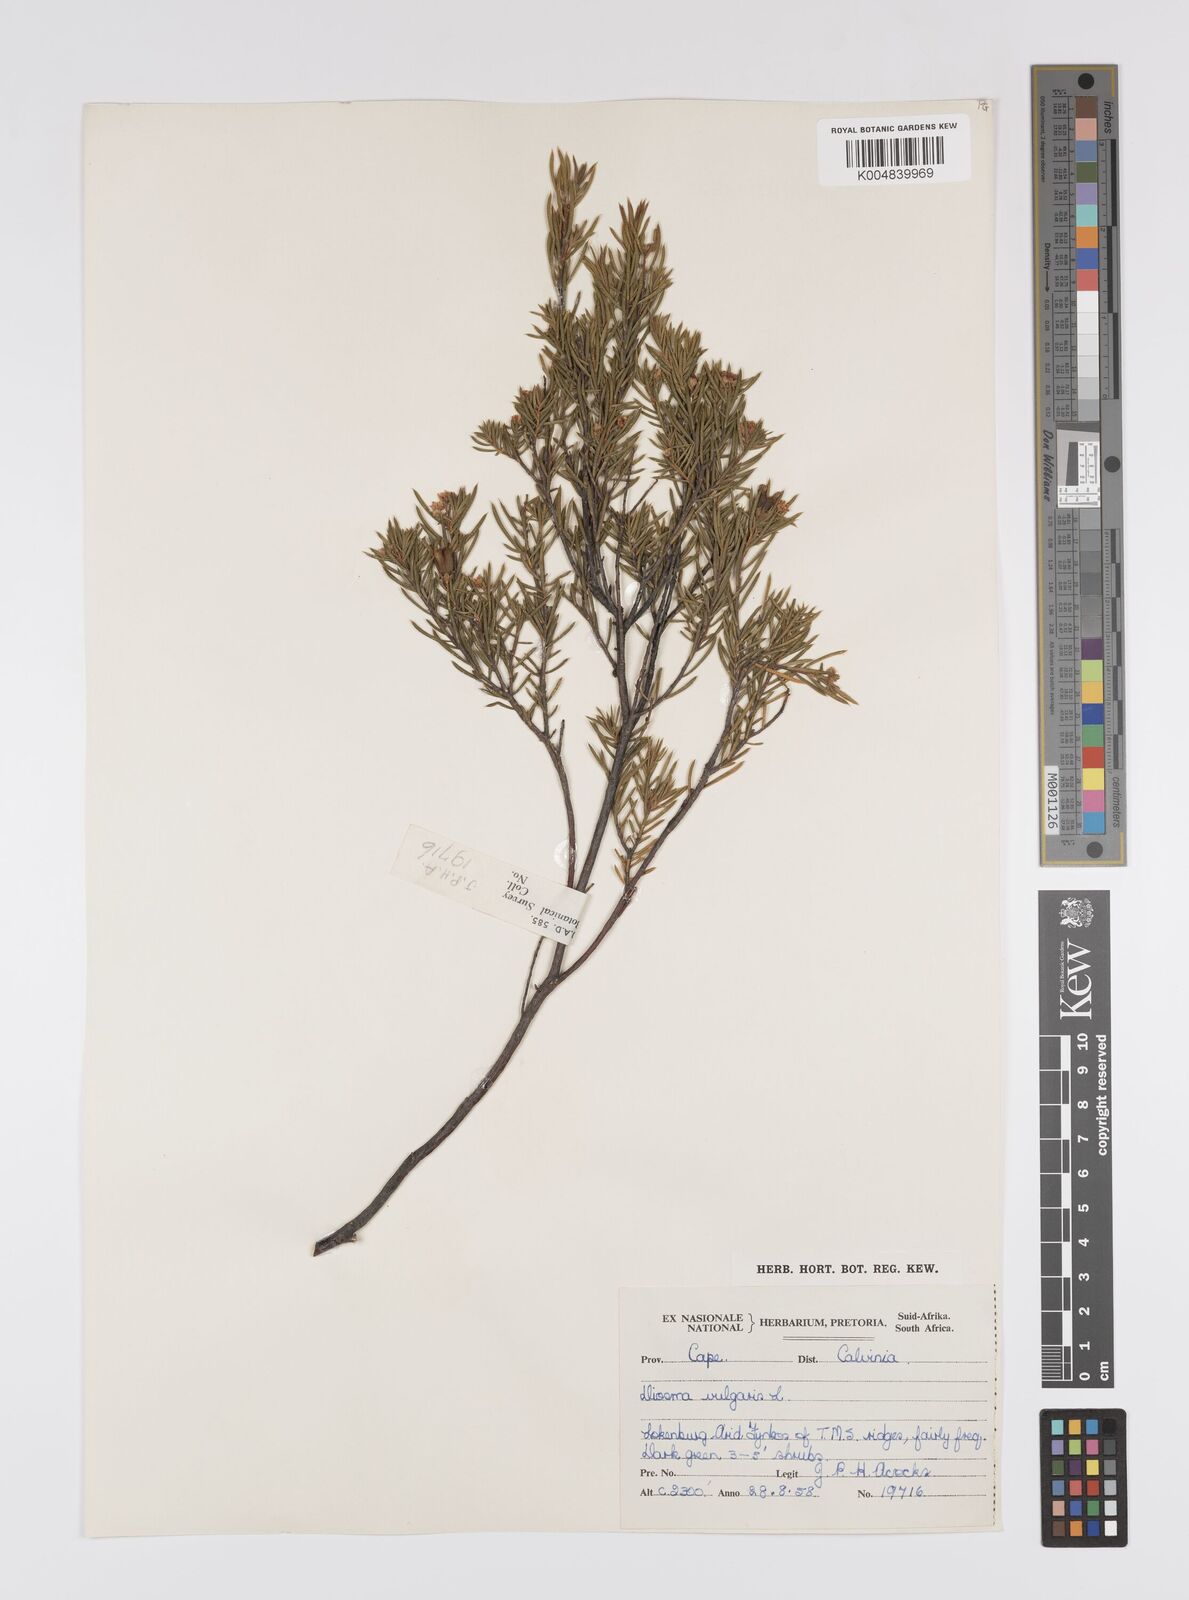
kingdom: Plantae
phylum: Tracheophyta
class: Magnoliopsida
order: Sapindales
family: Rutaceae
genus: Diosma
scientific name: Diosma acmaeophylla
